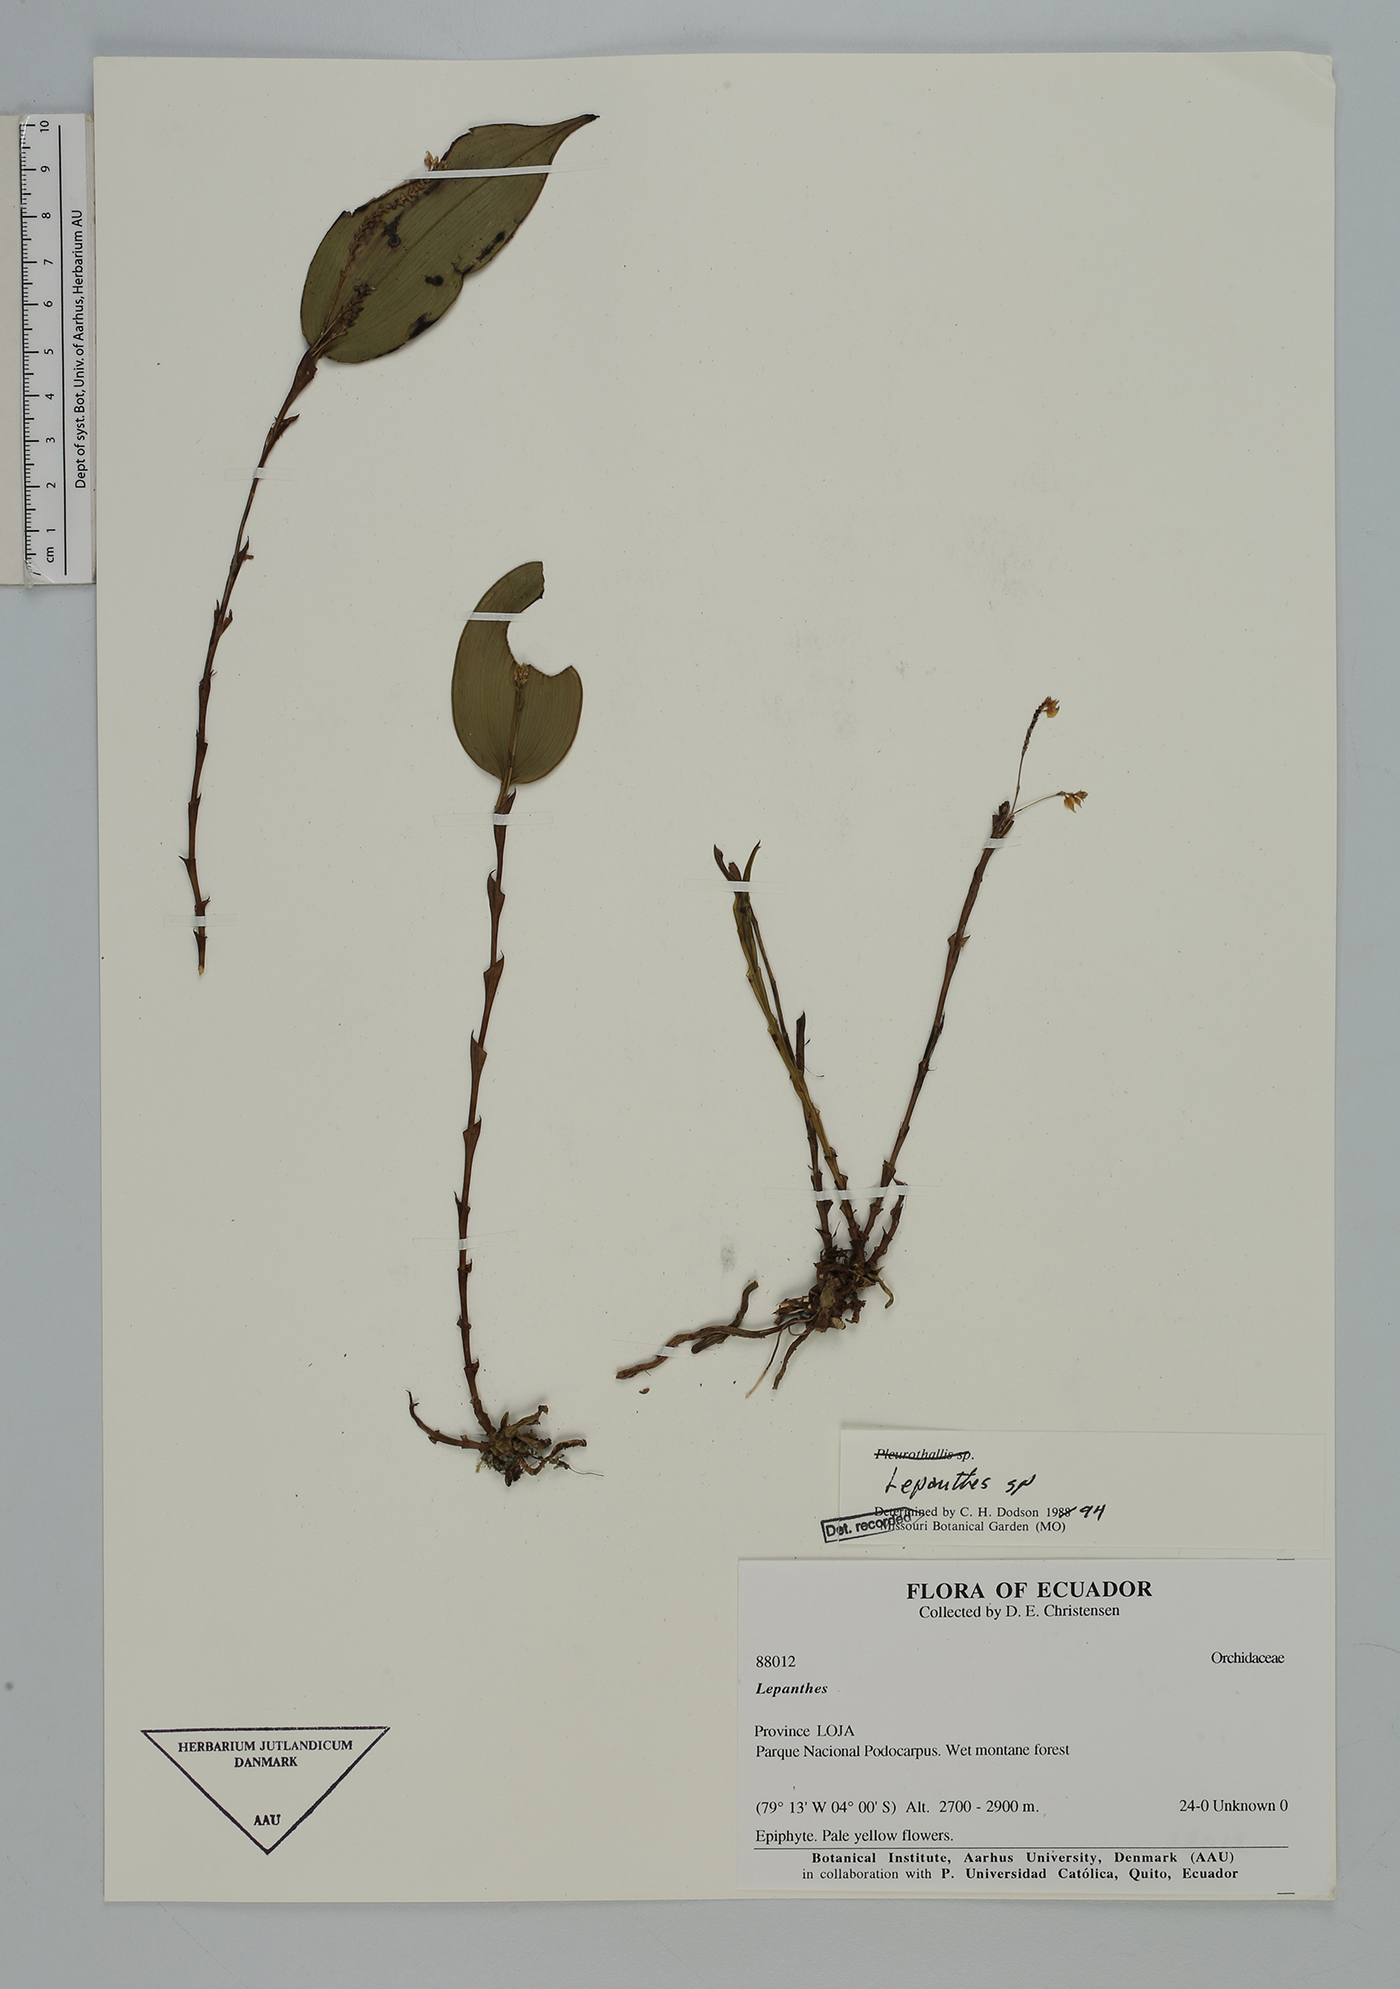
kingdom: Plantae
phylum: Tracheophyta
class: Liliopsida
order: Asparagales
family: Orchidaceae
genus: Lepanthes
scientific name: Lepanthes
